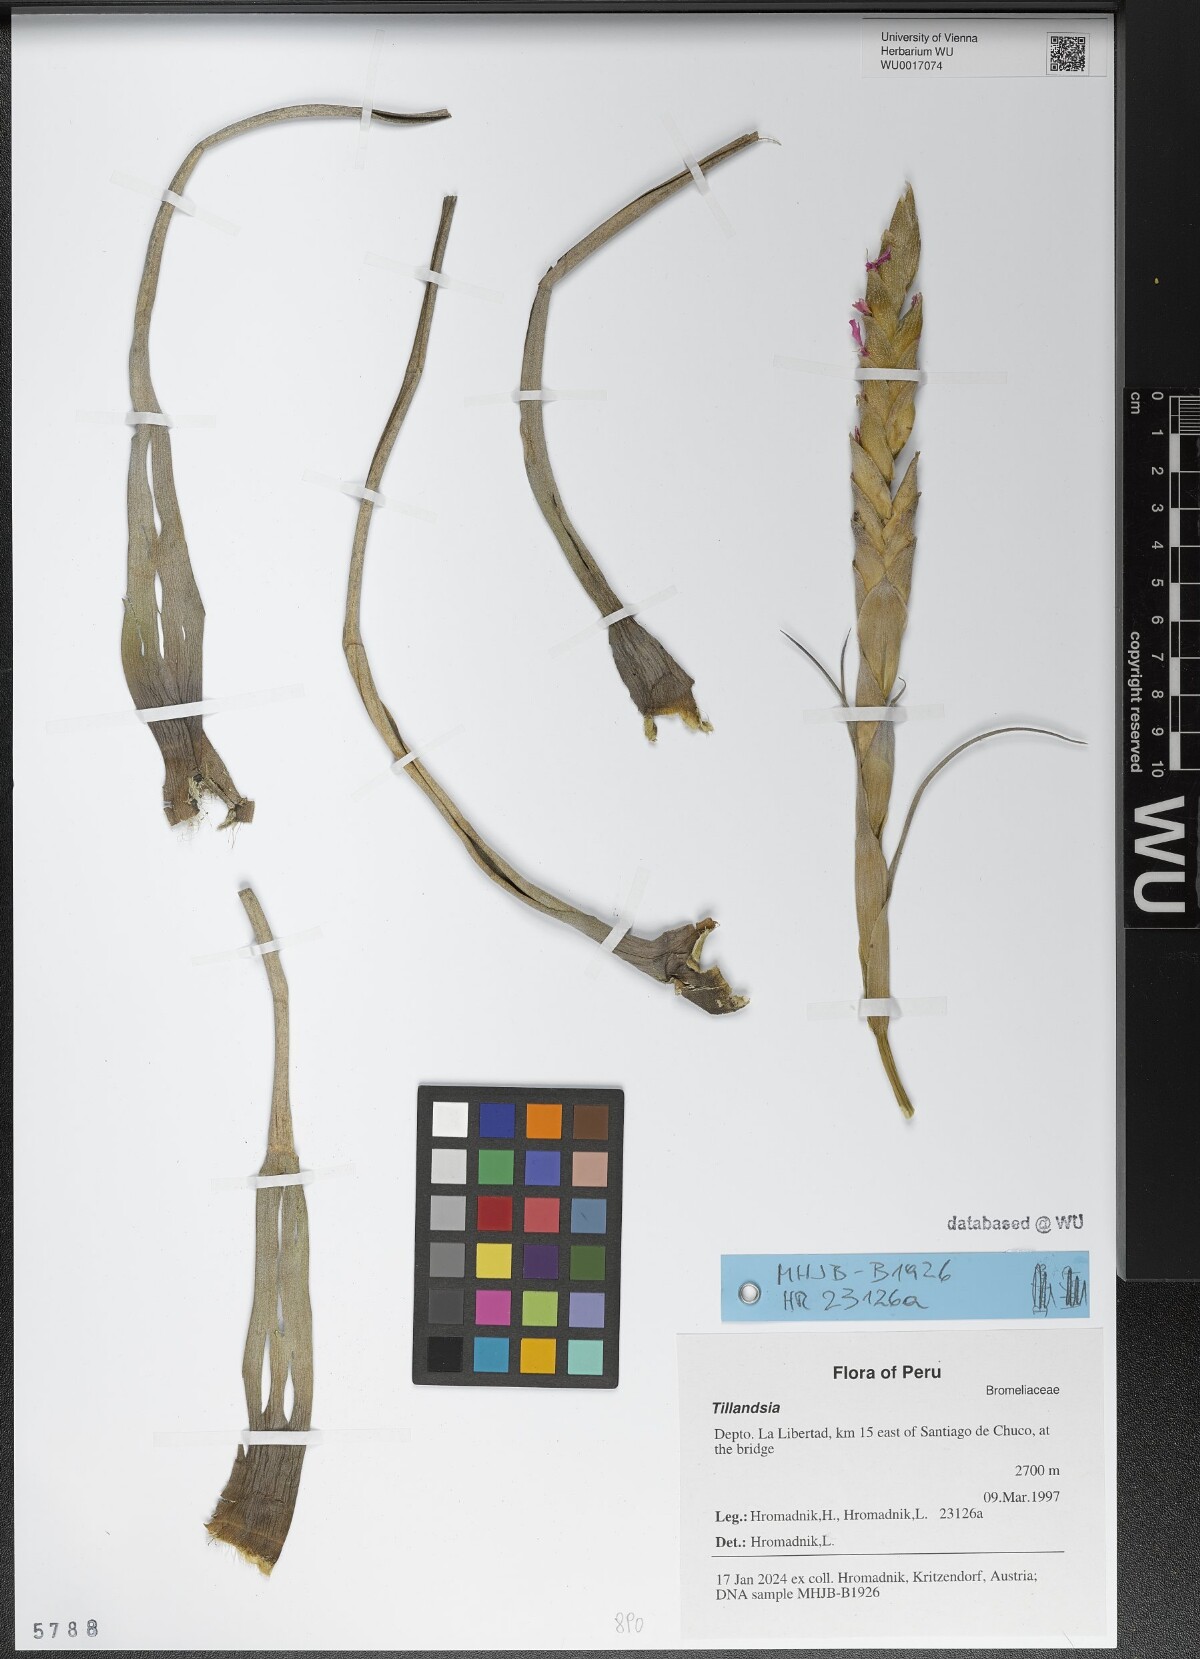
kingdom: Plantae
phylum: Tracheophyta
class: Liliopsida
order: Poales
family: Bromeliaceae
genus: Tillandsia
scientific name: Tillandsia
